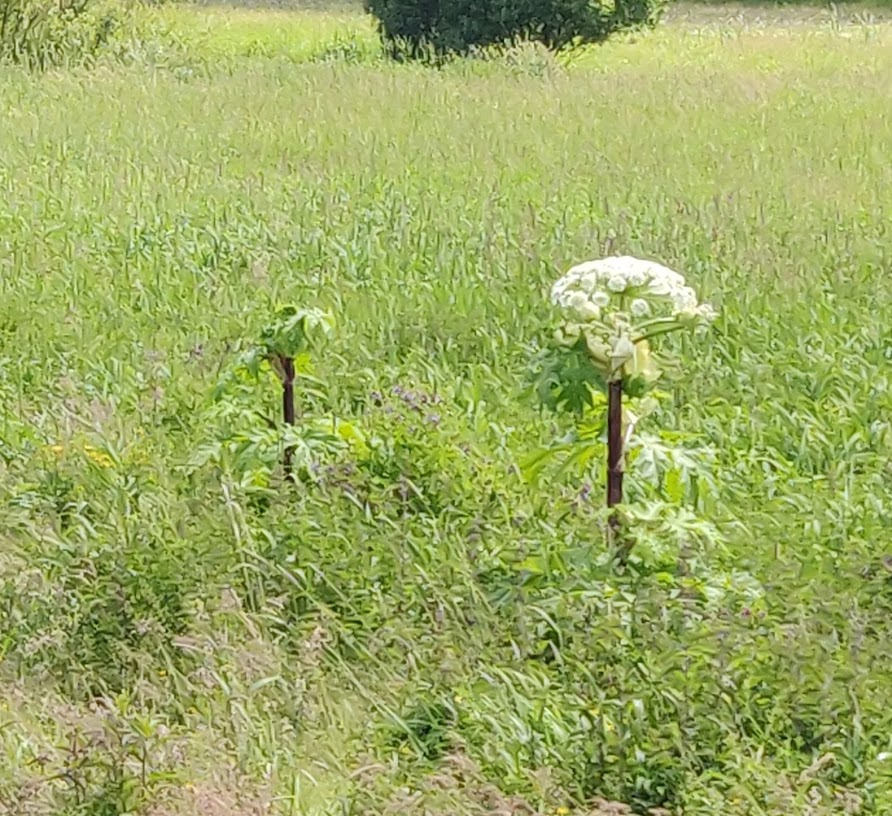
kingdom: Plantae
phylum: Tracheophyta
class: Magnoliopsida
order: Apiales
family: Apiaceae
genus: Heracleum
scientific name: Heracleum mantegazzianum
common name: Kæmpe-bjørneklo
